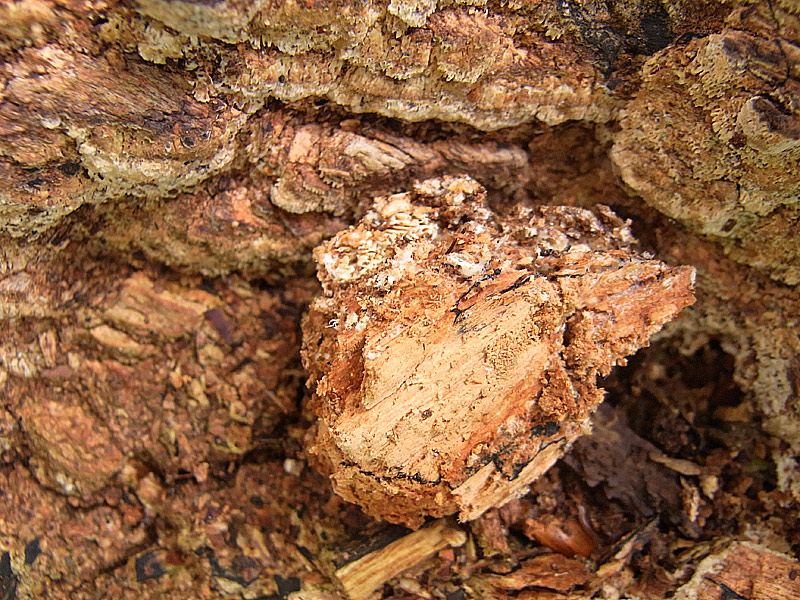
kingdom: Fungi
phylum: Basidiomycota
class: Agaricomycetes
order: Hymenochaetales
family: Schizoporaceae
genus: Xylodon
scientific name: Xylodon flaviporus
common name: gulporet tandsvamp
